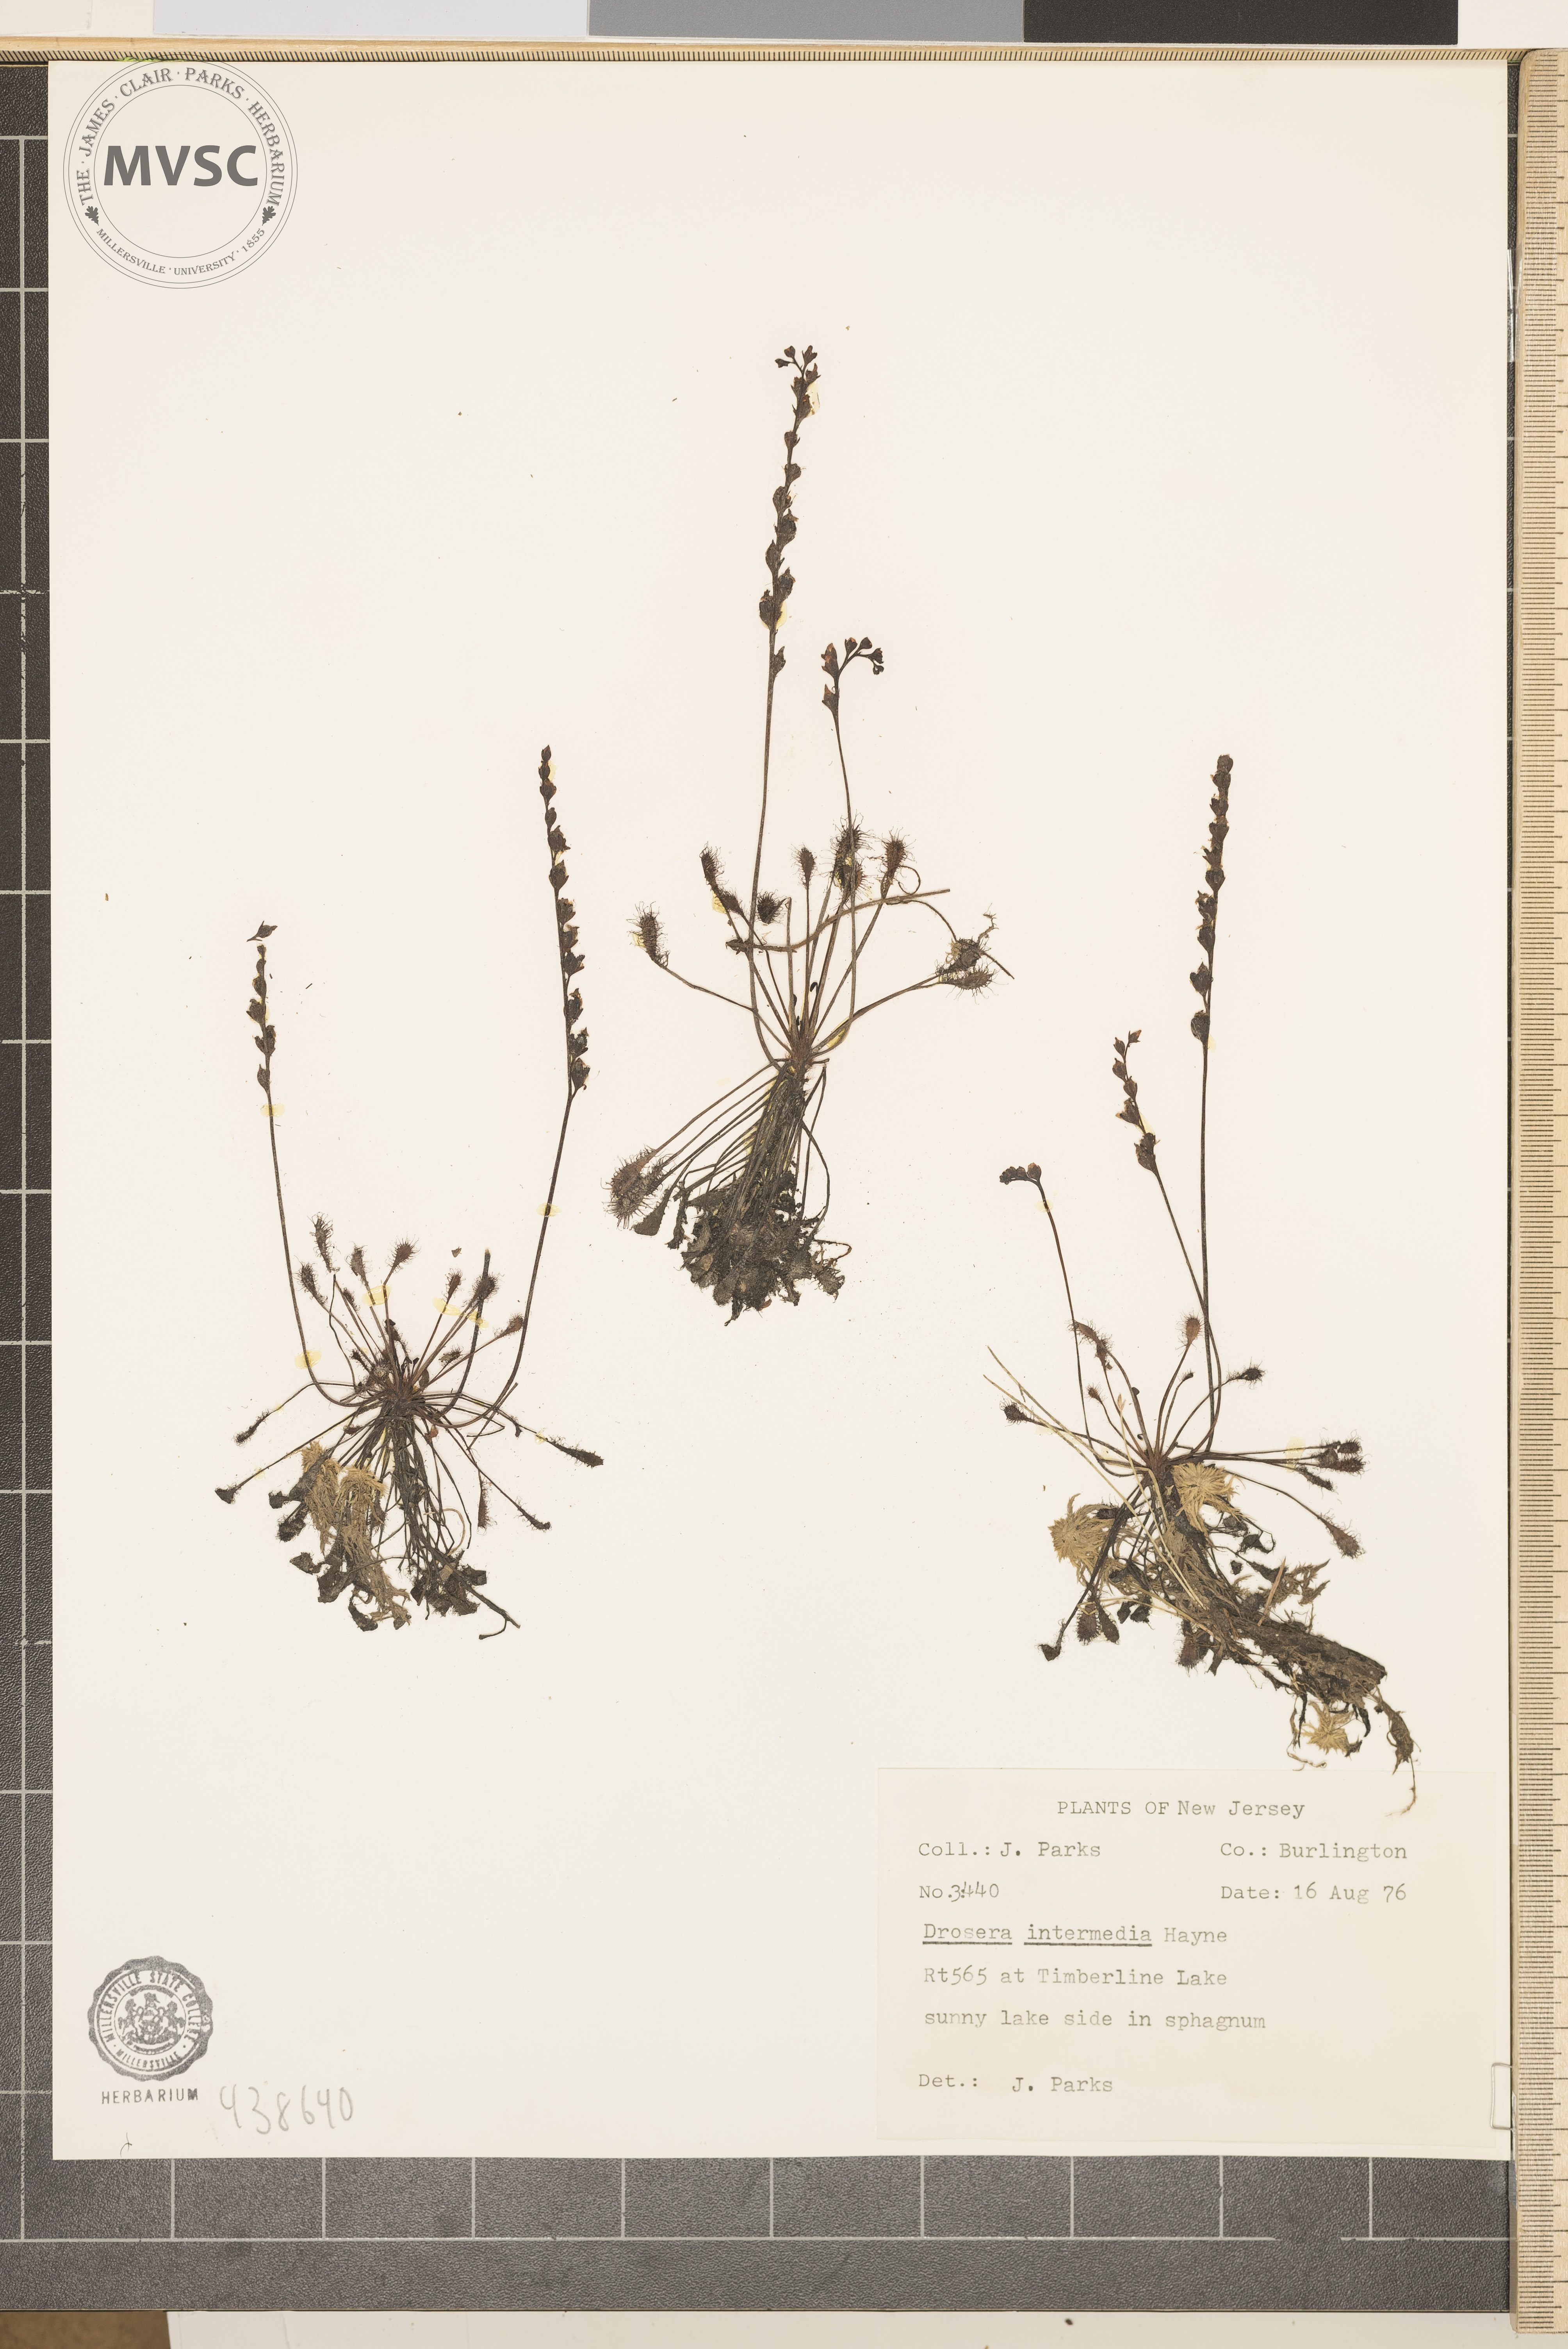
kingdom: Plantae
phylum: Tracheophyta
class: Magnoliopsida
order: Caryophyllales
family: Droseraceae
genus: Drosera
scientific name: Drosera intermedia
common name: Oblong-leaved sundew
